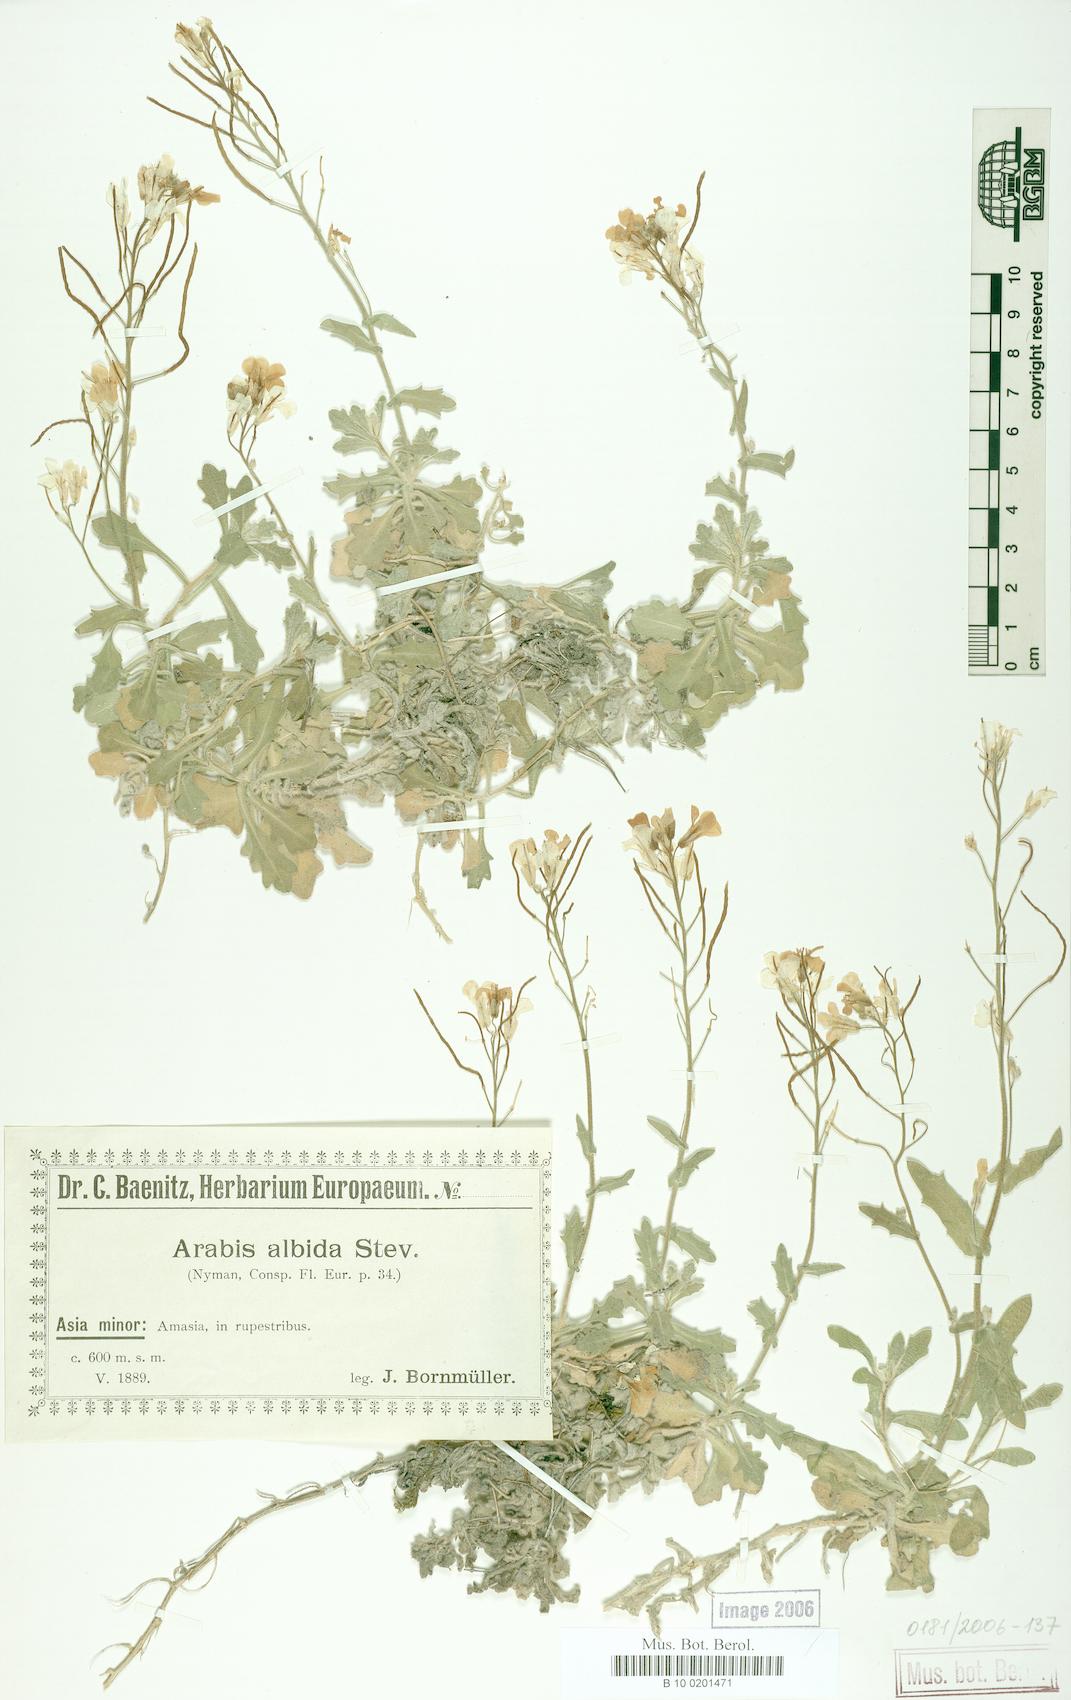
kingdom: Plantae
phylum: Tracheophyta
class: Magnoliopsida
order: Brassicales
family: Brassicaceae
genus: Arabis
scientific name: Arabis alpina
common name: Alpine rock-cress
